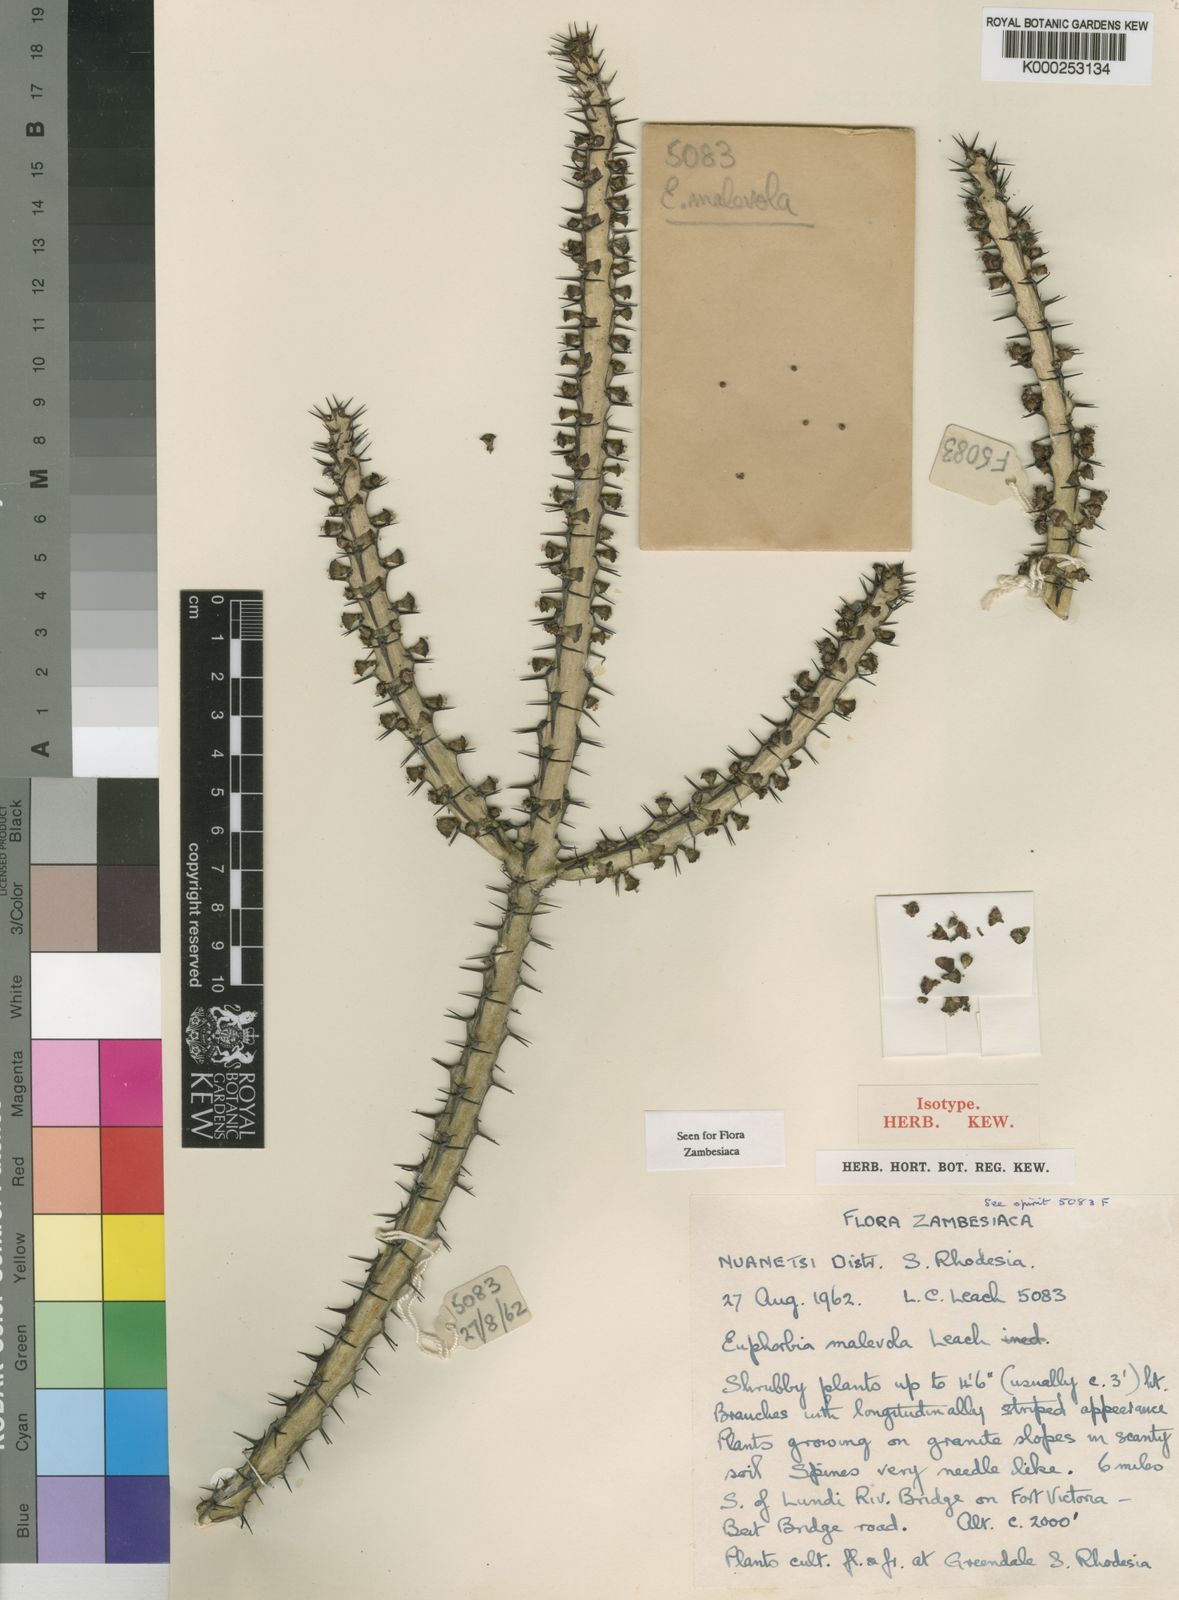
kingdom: Plantae
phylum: Tracheophyta
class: Magnoliopsida
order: Malpighiales
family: Euphorbiaceae
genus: Euphorbia
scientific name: Euphorbia malevola
